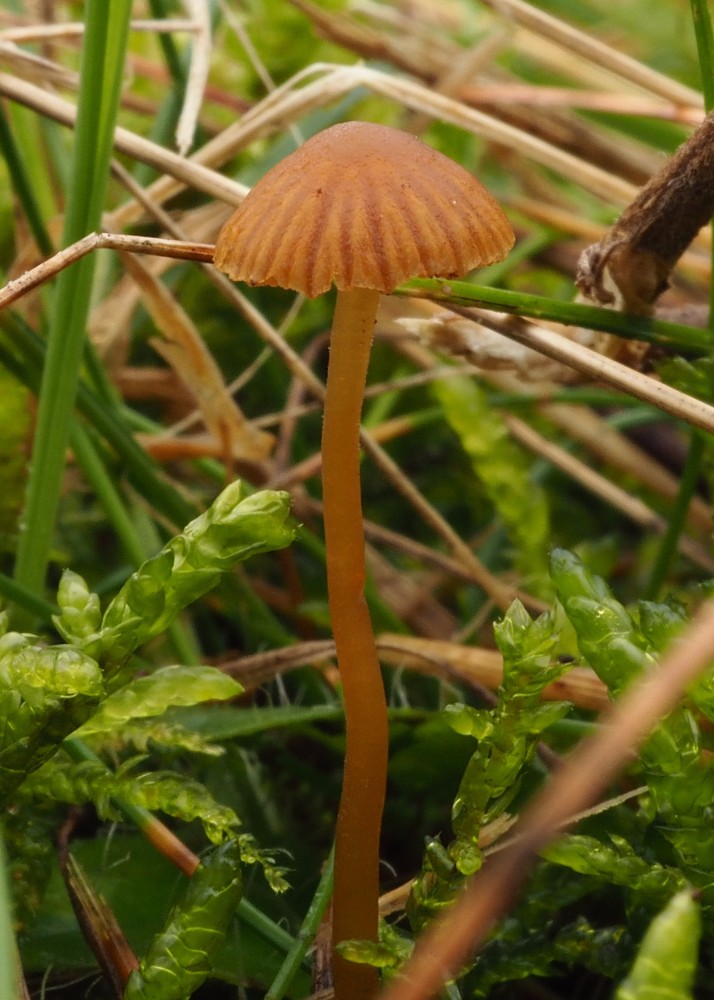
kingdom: Fungi
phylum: Basidiomycota
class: Agaricomycetes
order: Agaricales
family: Hymenogastraceae
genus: Galerina
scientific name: Galerina
